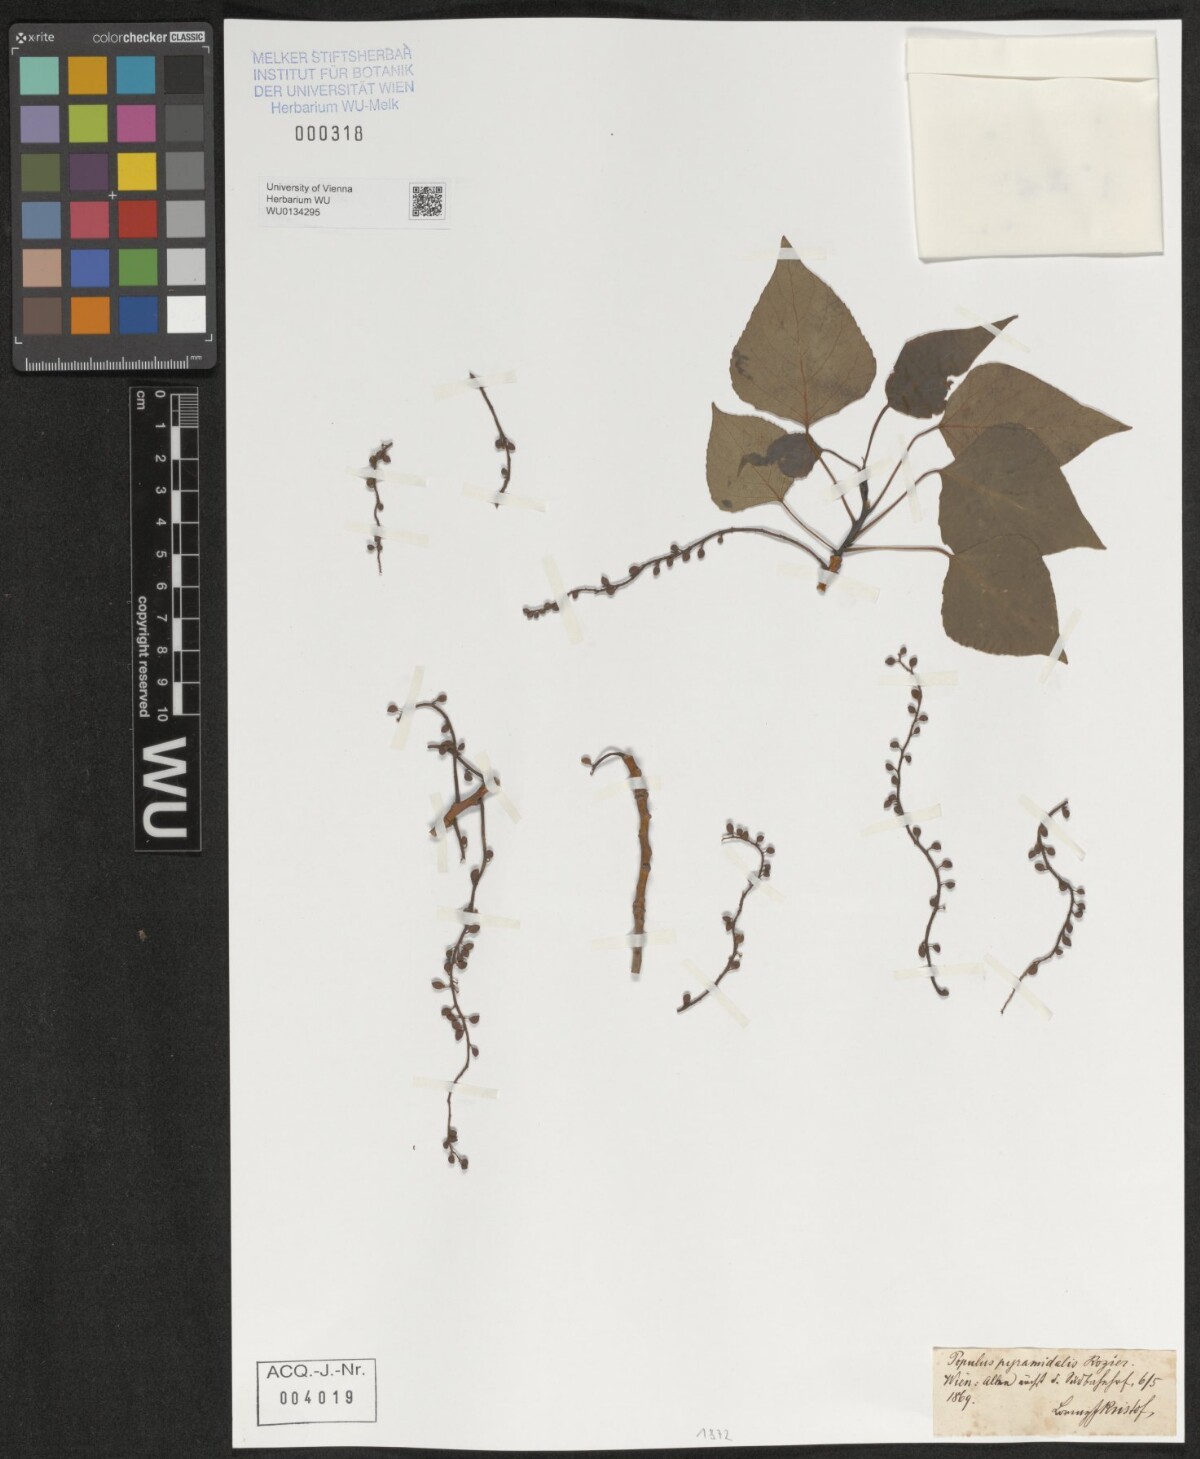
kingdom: Plantae
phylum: Tracheophyta
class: Magnoliopsida
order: Malpighiales
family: Salicaceae
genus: Populus
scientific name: Populus nigra
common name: Black poplar
